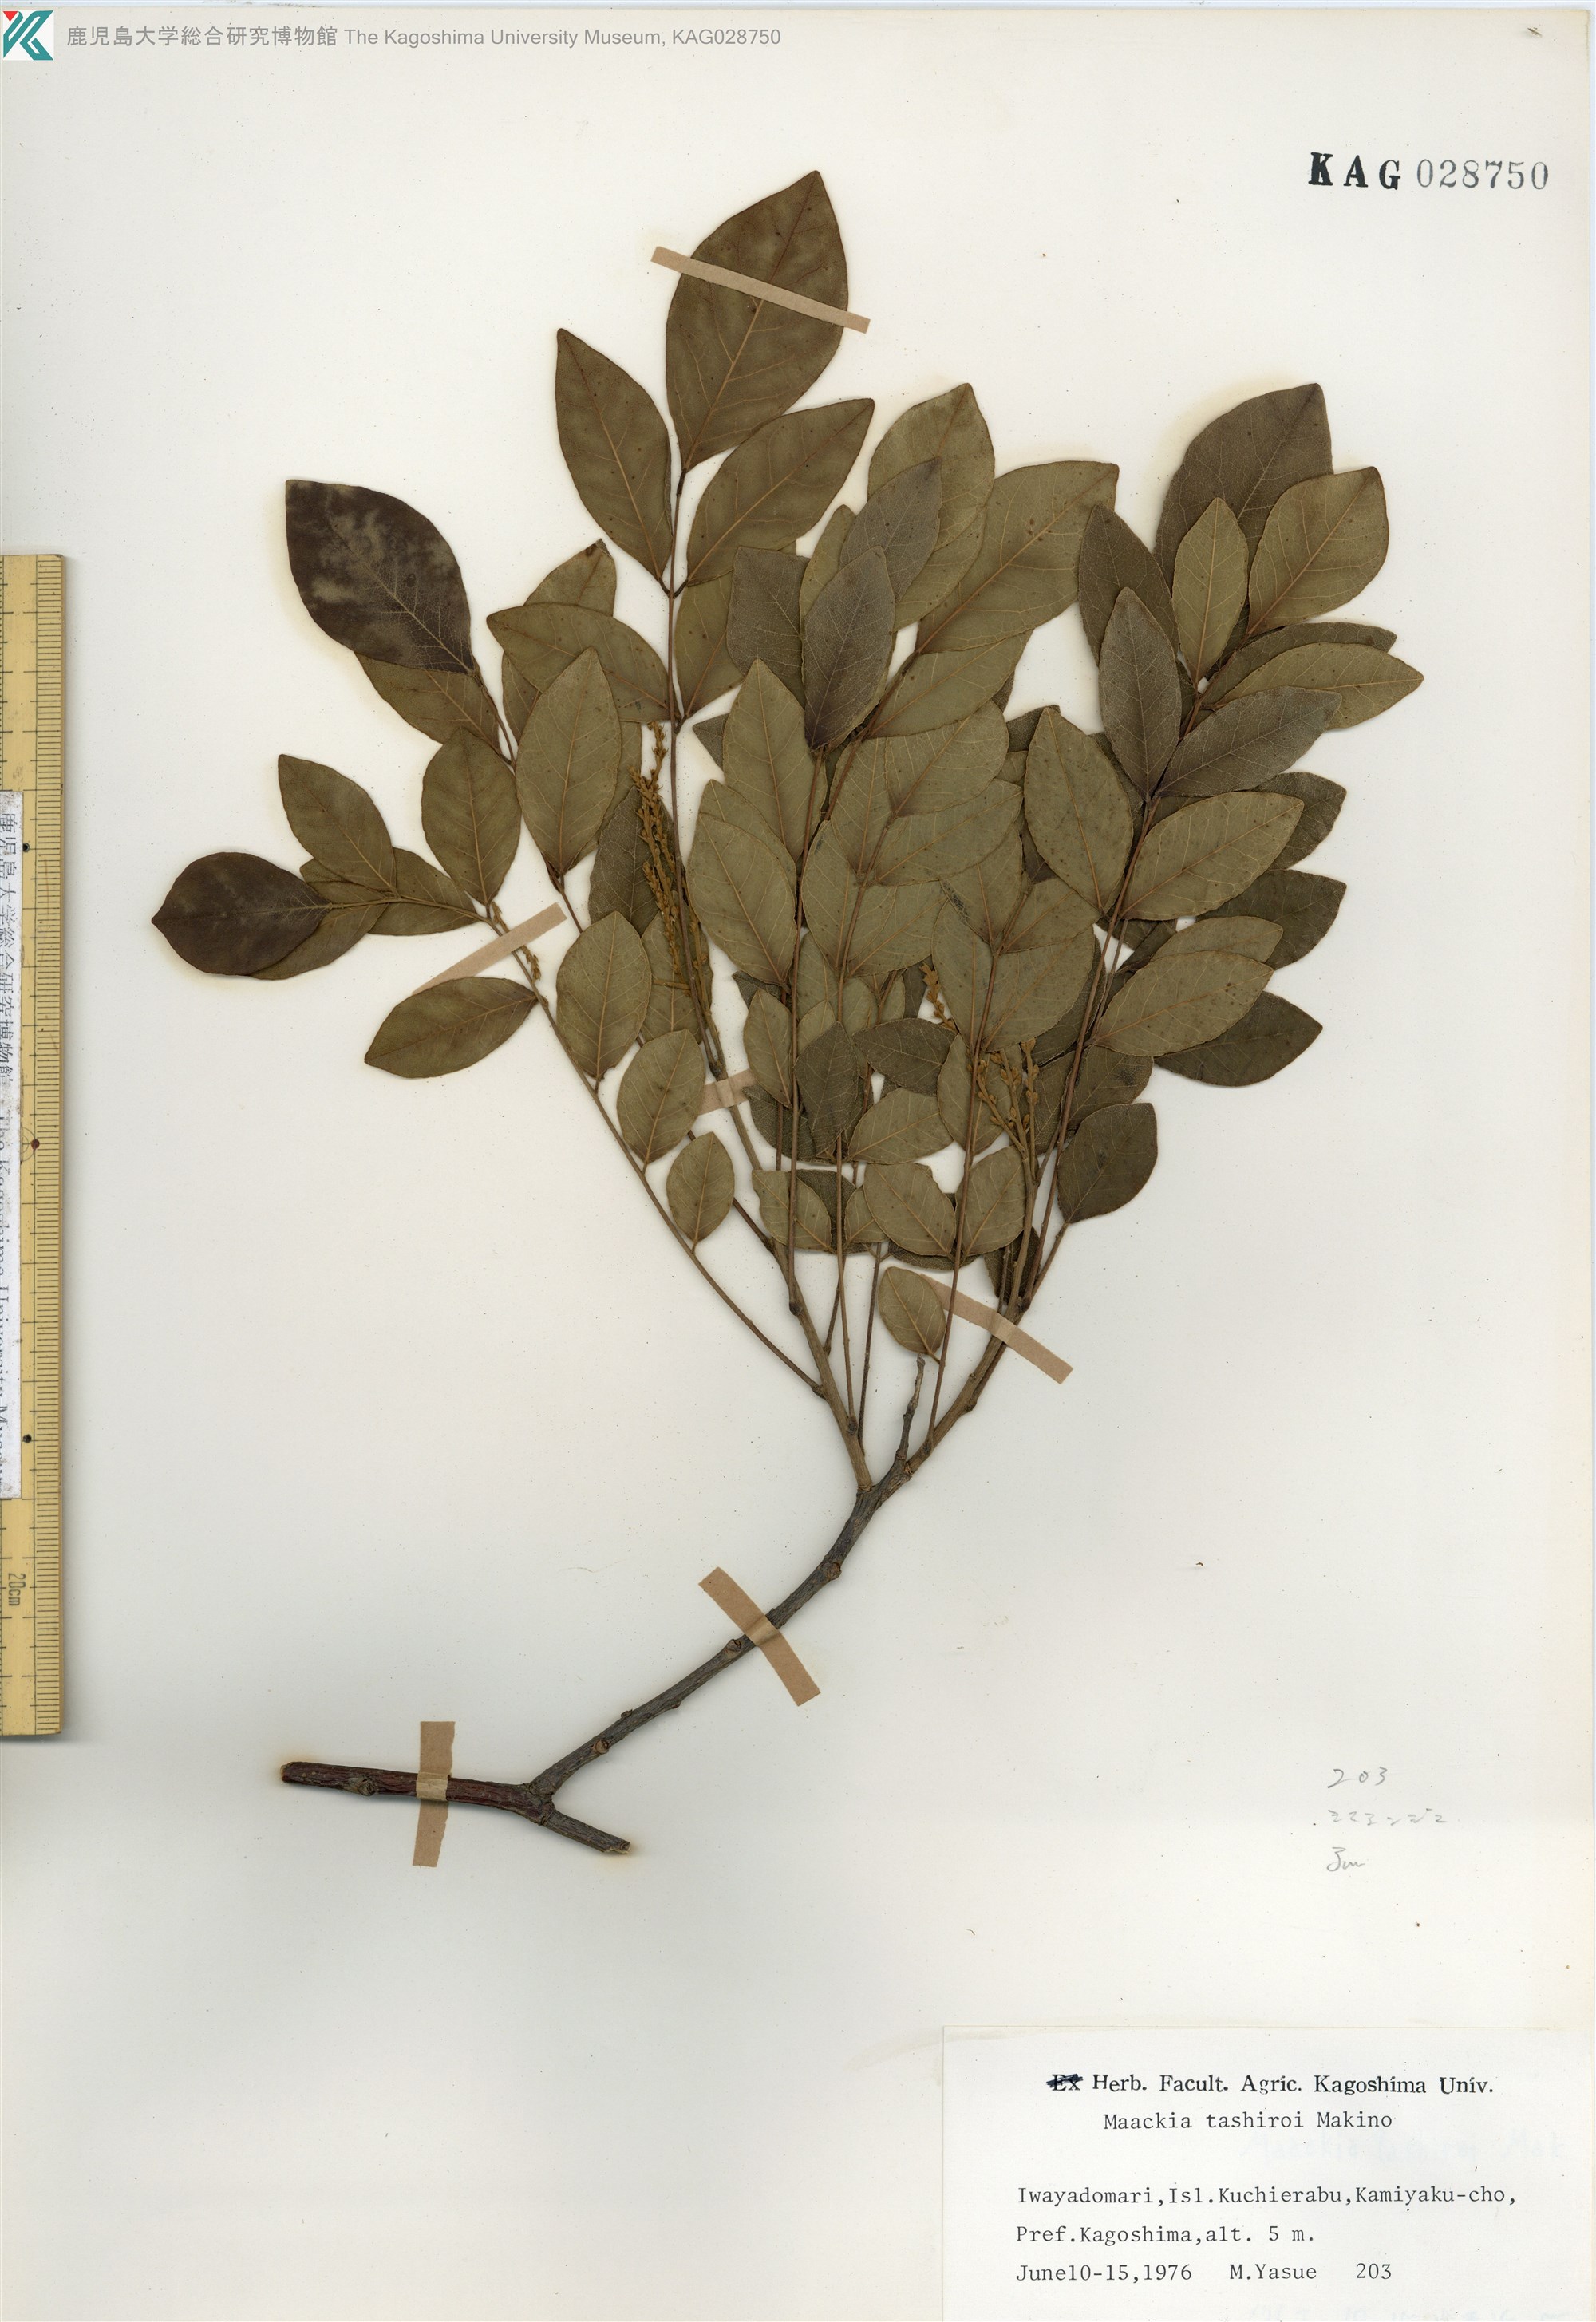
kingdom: Plantae
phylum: Tracheophyta
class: Magnoliopsida
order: Fabales
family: Fabaceae
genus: Maackia
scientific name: Maackia tashiroi
